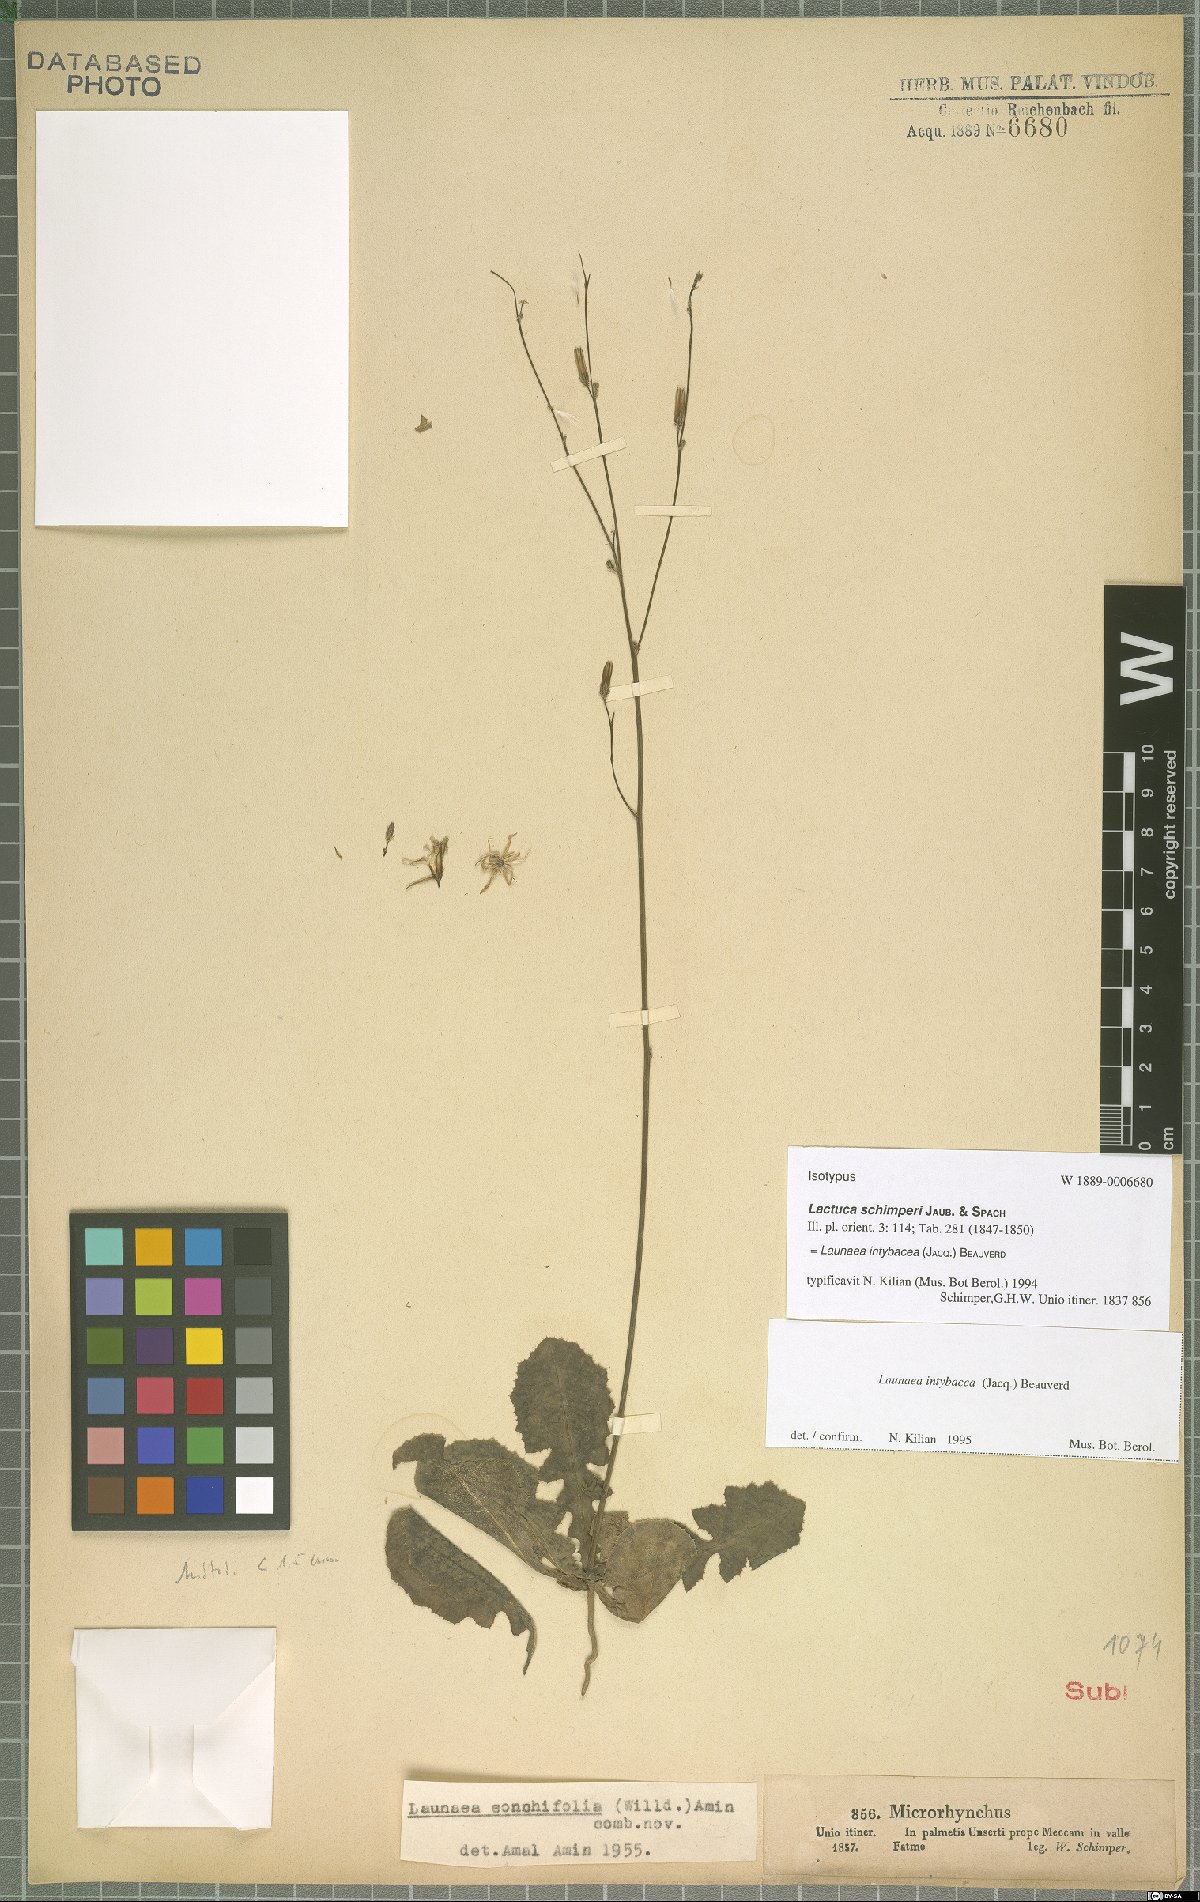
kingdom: Plantae
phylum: Tracheophyta
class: Magnoliopsida
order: Asterales
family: Asteraceae
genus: Launaea
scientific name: Launaea intybacea
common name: Achicoria azul
